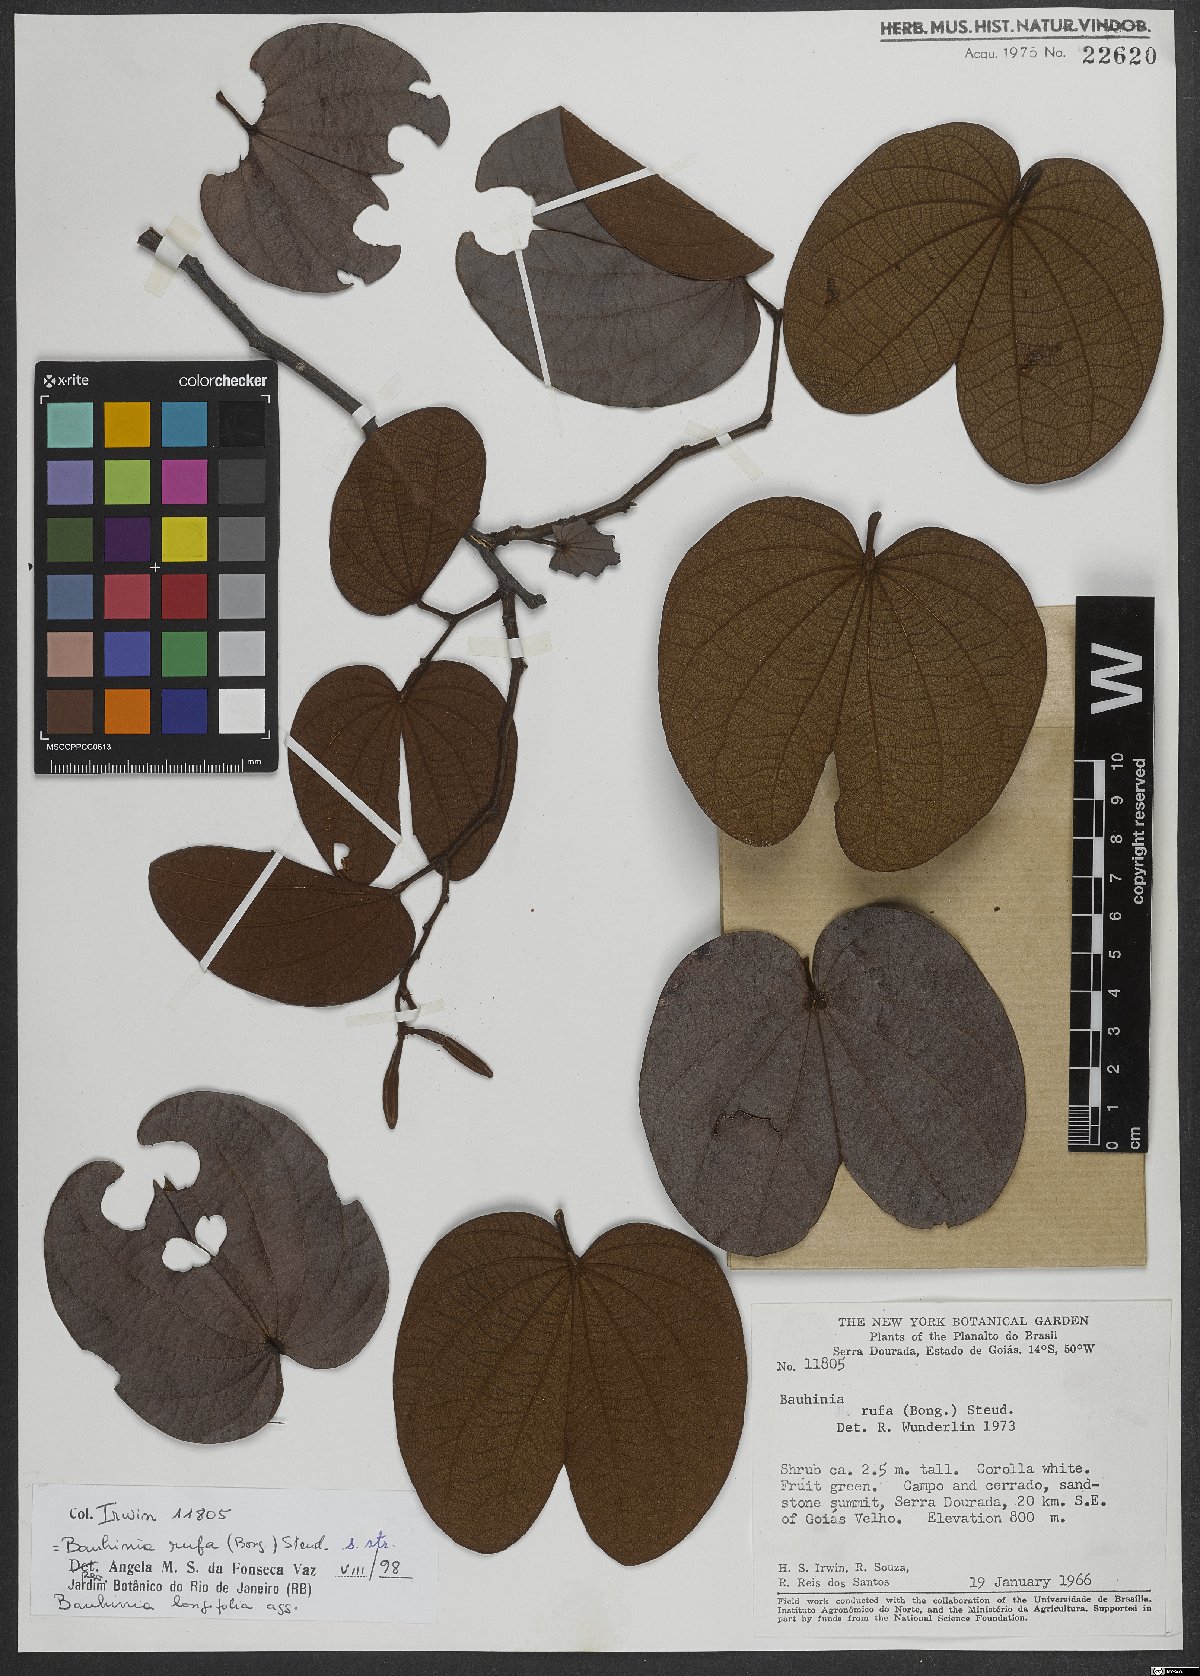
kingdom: Plantae
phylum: Tracheophyta
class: Magnoliopsida
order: Fabales
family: Fabaceae
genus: Bauhinia
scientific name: Bauhinia rufa
